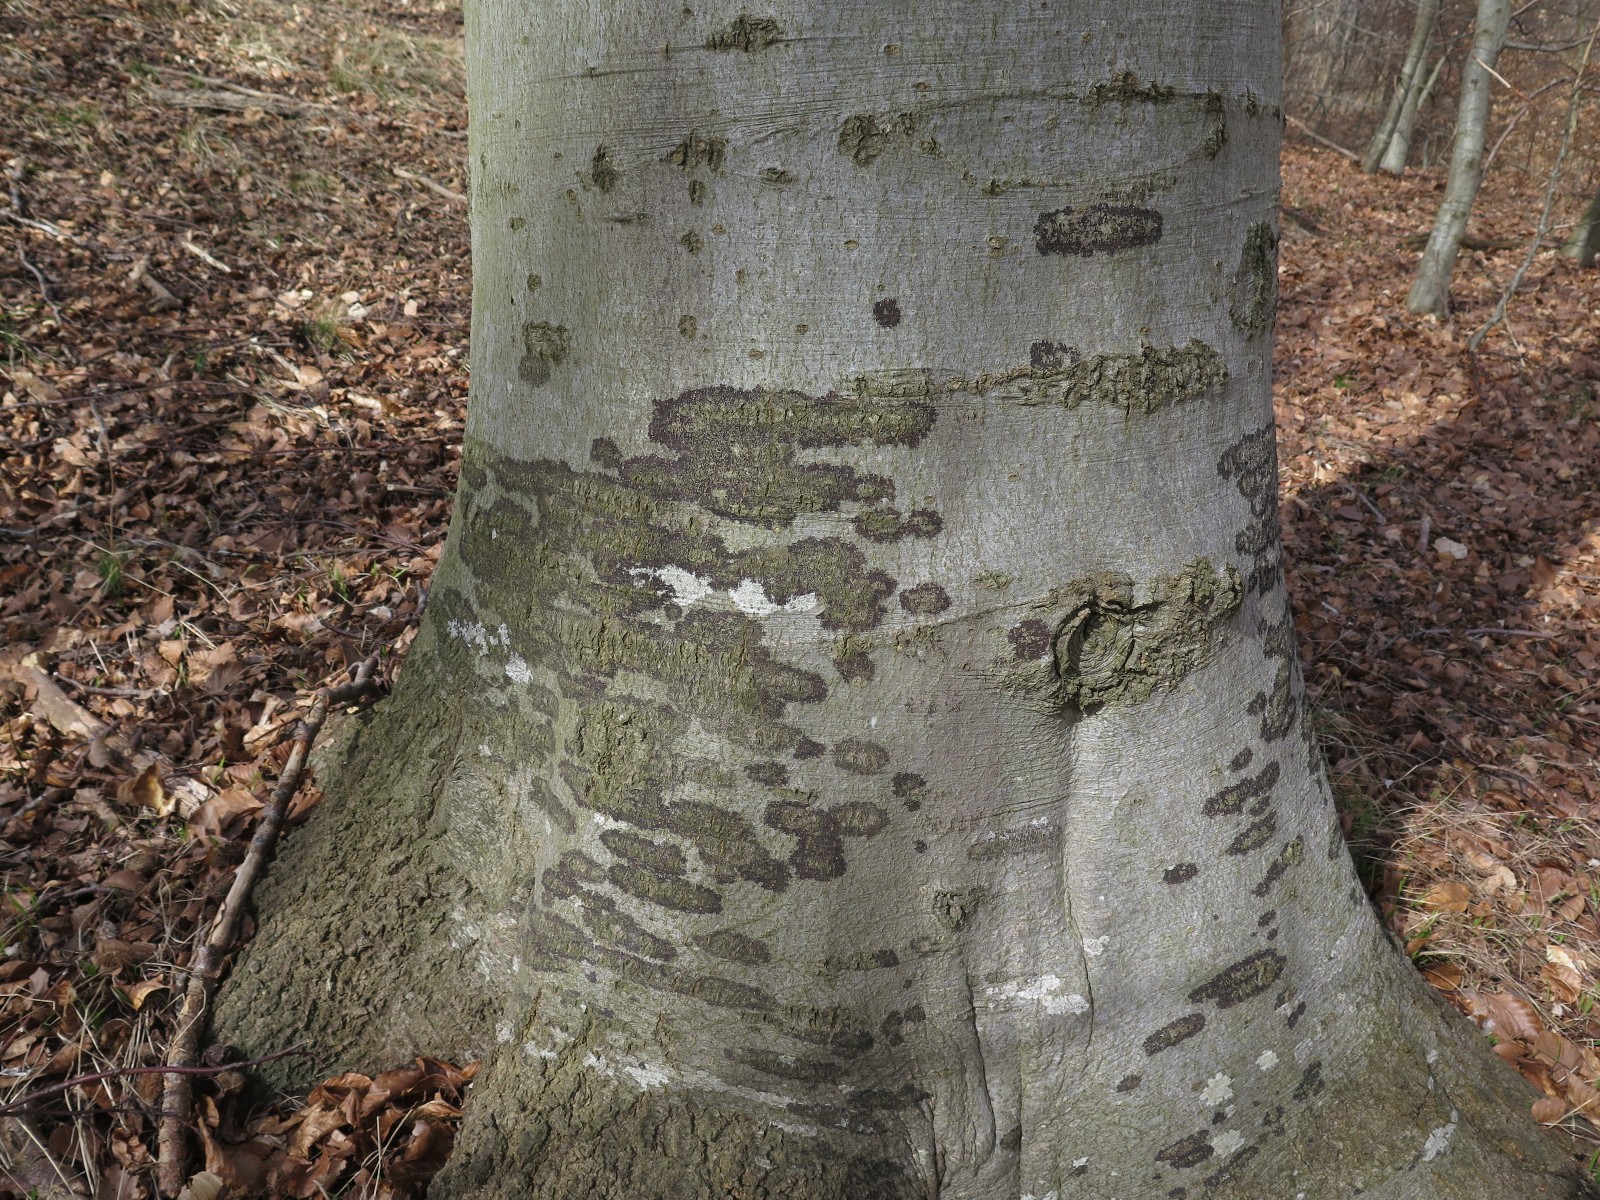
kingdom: Fungi
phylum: Ascomycota
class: Leotiomycetes
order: Rhytismatales
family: Ascodichaenaceae
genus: Ascodichaena
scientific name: Ascodichaena rugosa
